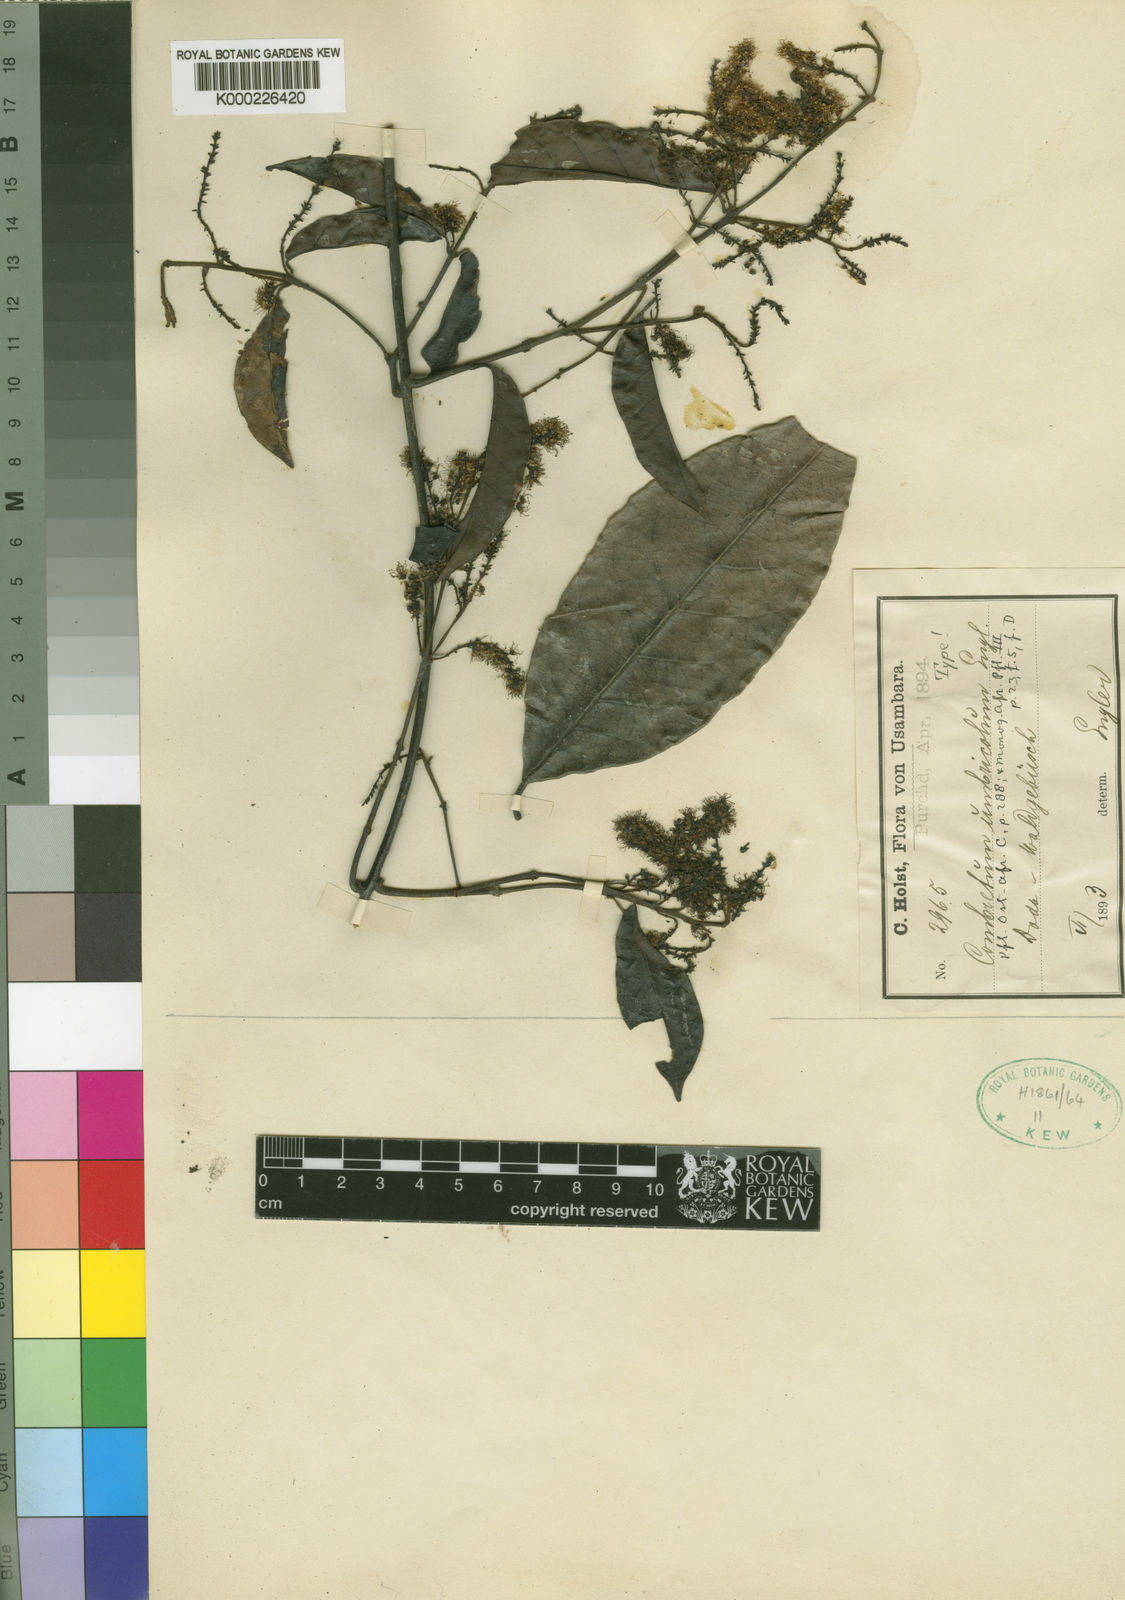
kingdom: Plantae
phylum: Tracheophyta
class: Magnoliopsida
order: Myrtales
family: Combretaceae
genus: Combretum
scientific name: Combretum umbricola
